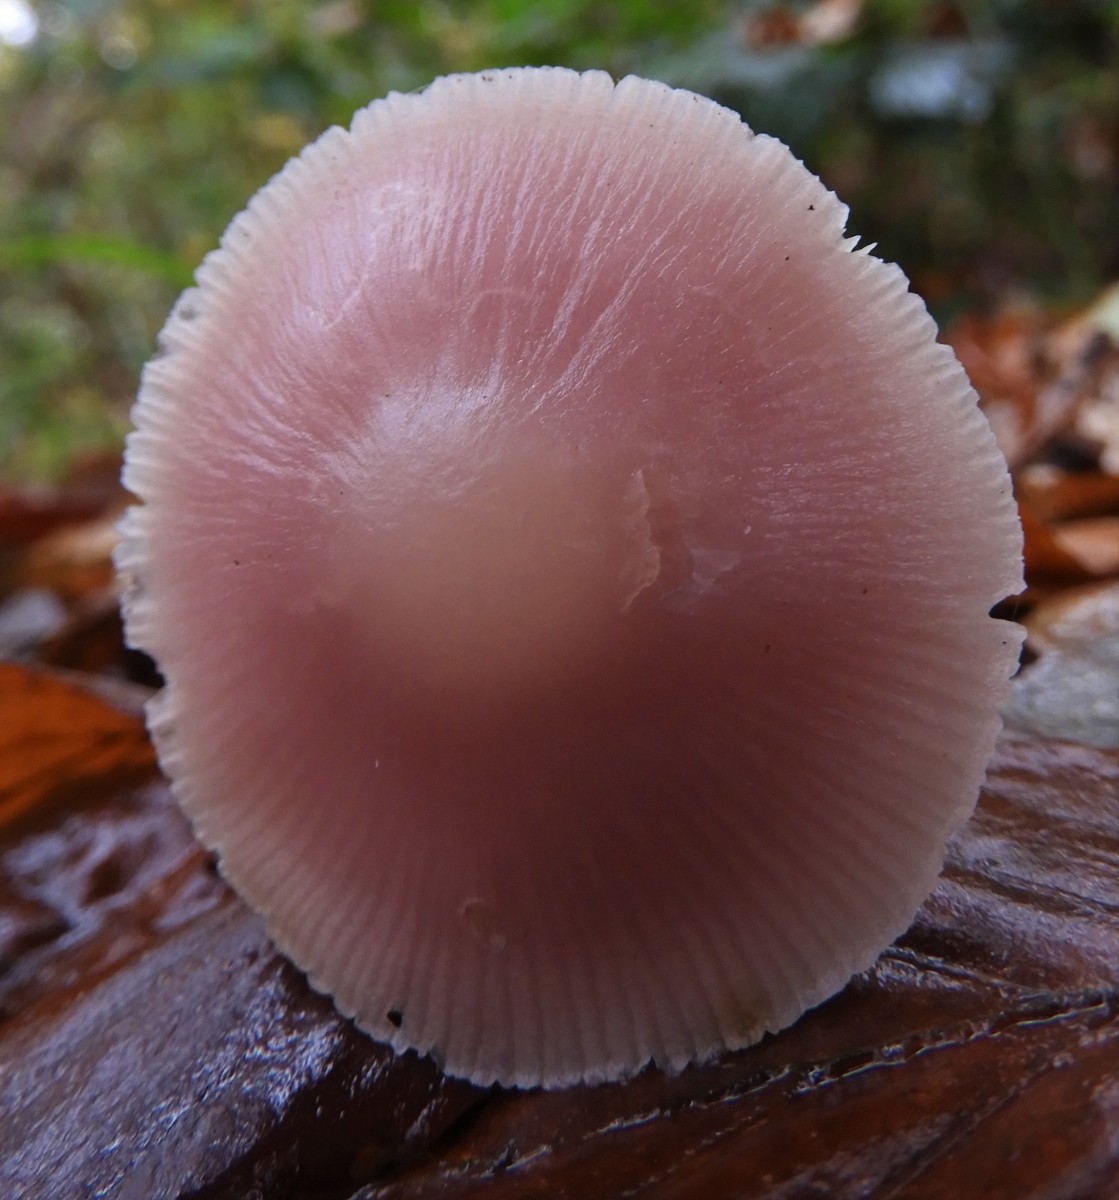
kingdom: Fungi
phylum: Basidiomycota
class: Agaricomycetes
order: Agaricales
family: Mycenaceae
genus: Mycena
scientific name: Mycena rosea
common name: rosa huesvamp
